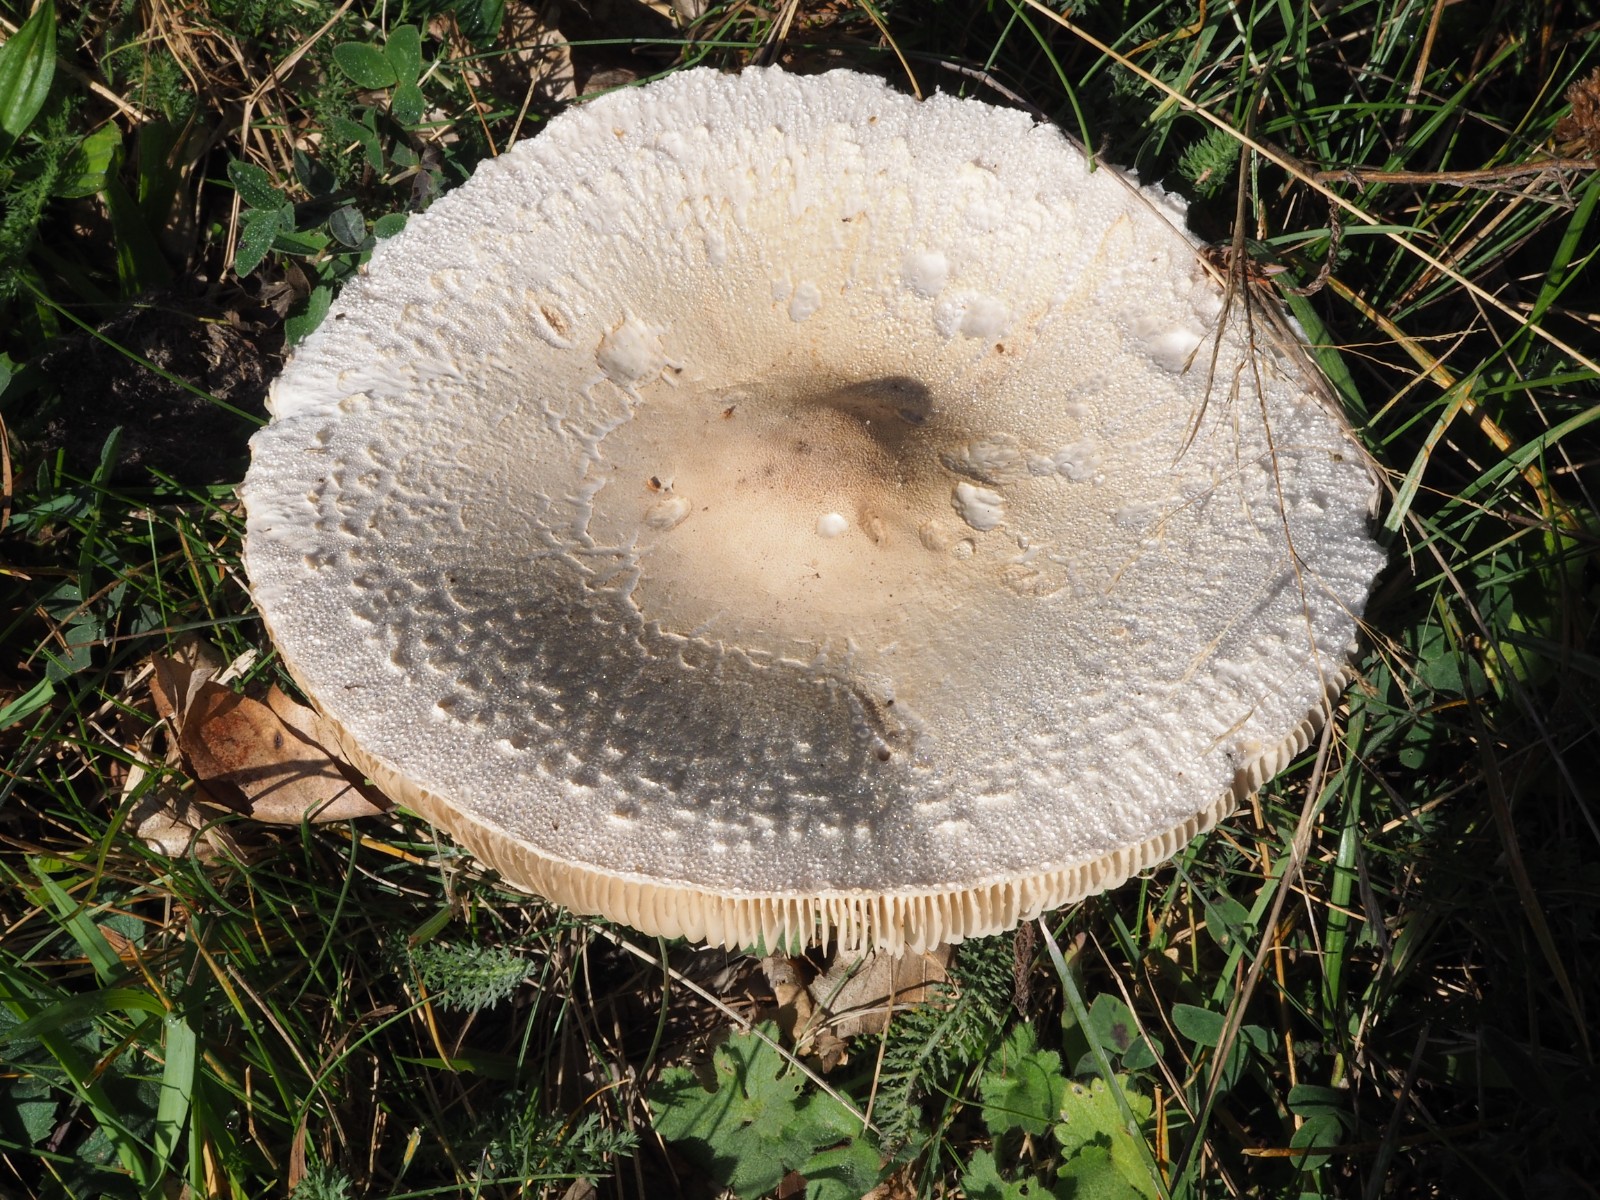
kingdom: Fungi
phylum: Basidiomycota
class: Agaricomycetes
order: Agaricales
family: Agaricaceae
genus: Macrolepiota
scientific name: Macrolepiota excoriata
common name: mark-kæmpeparasolhat
